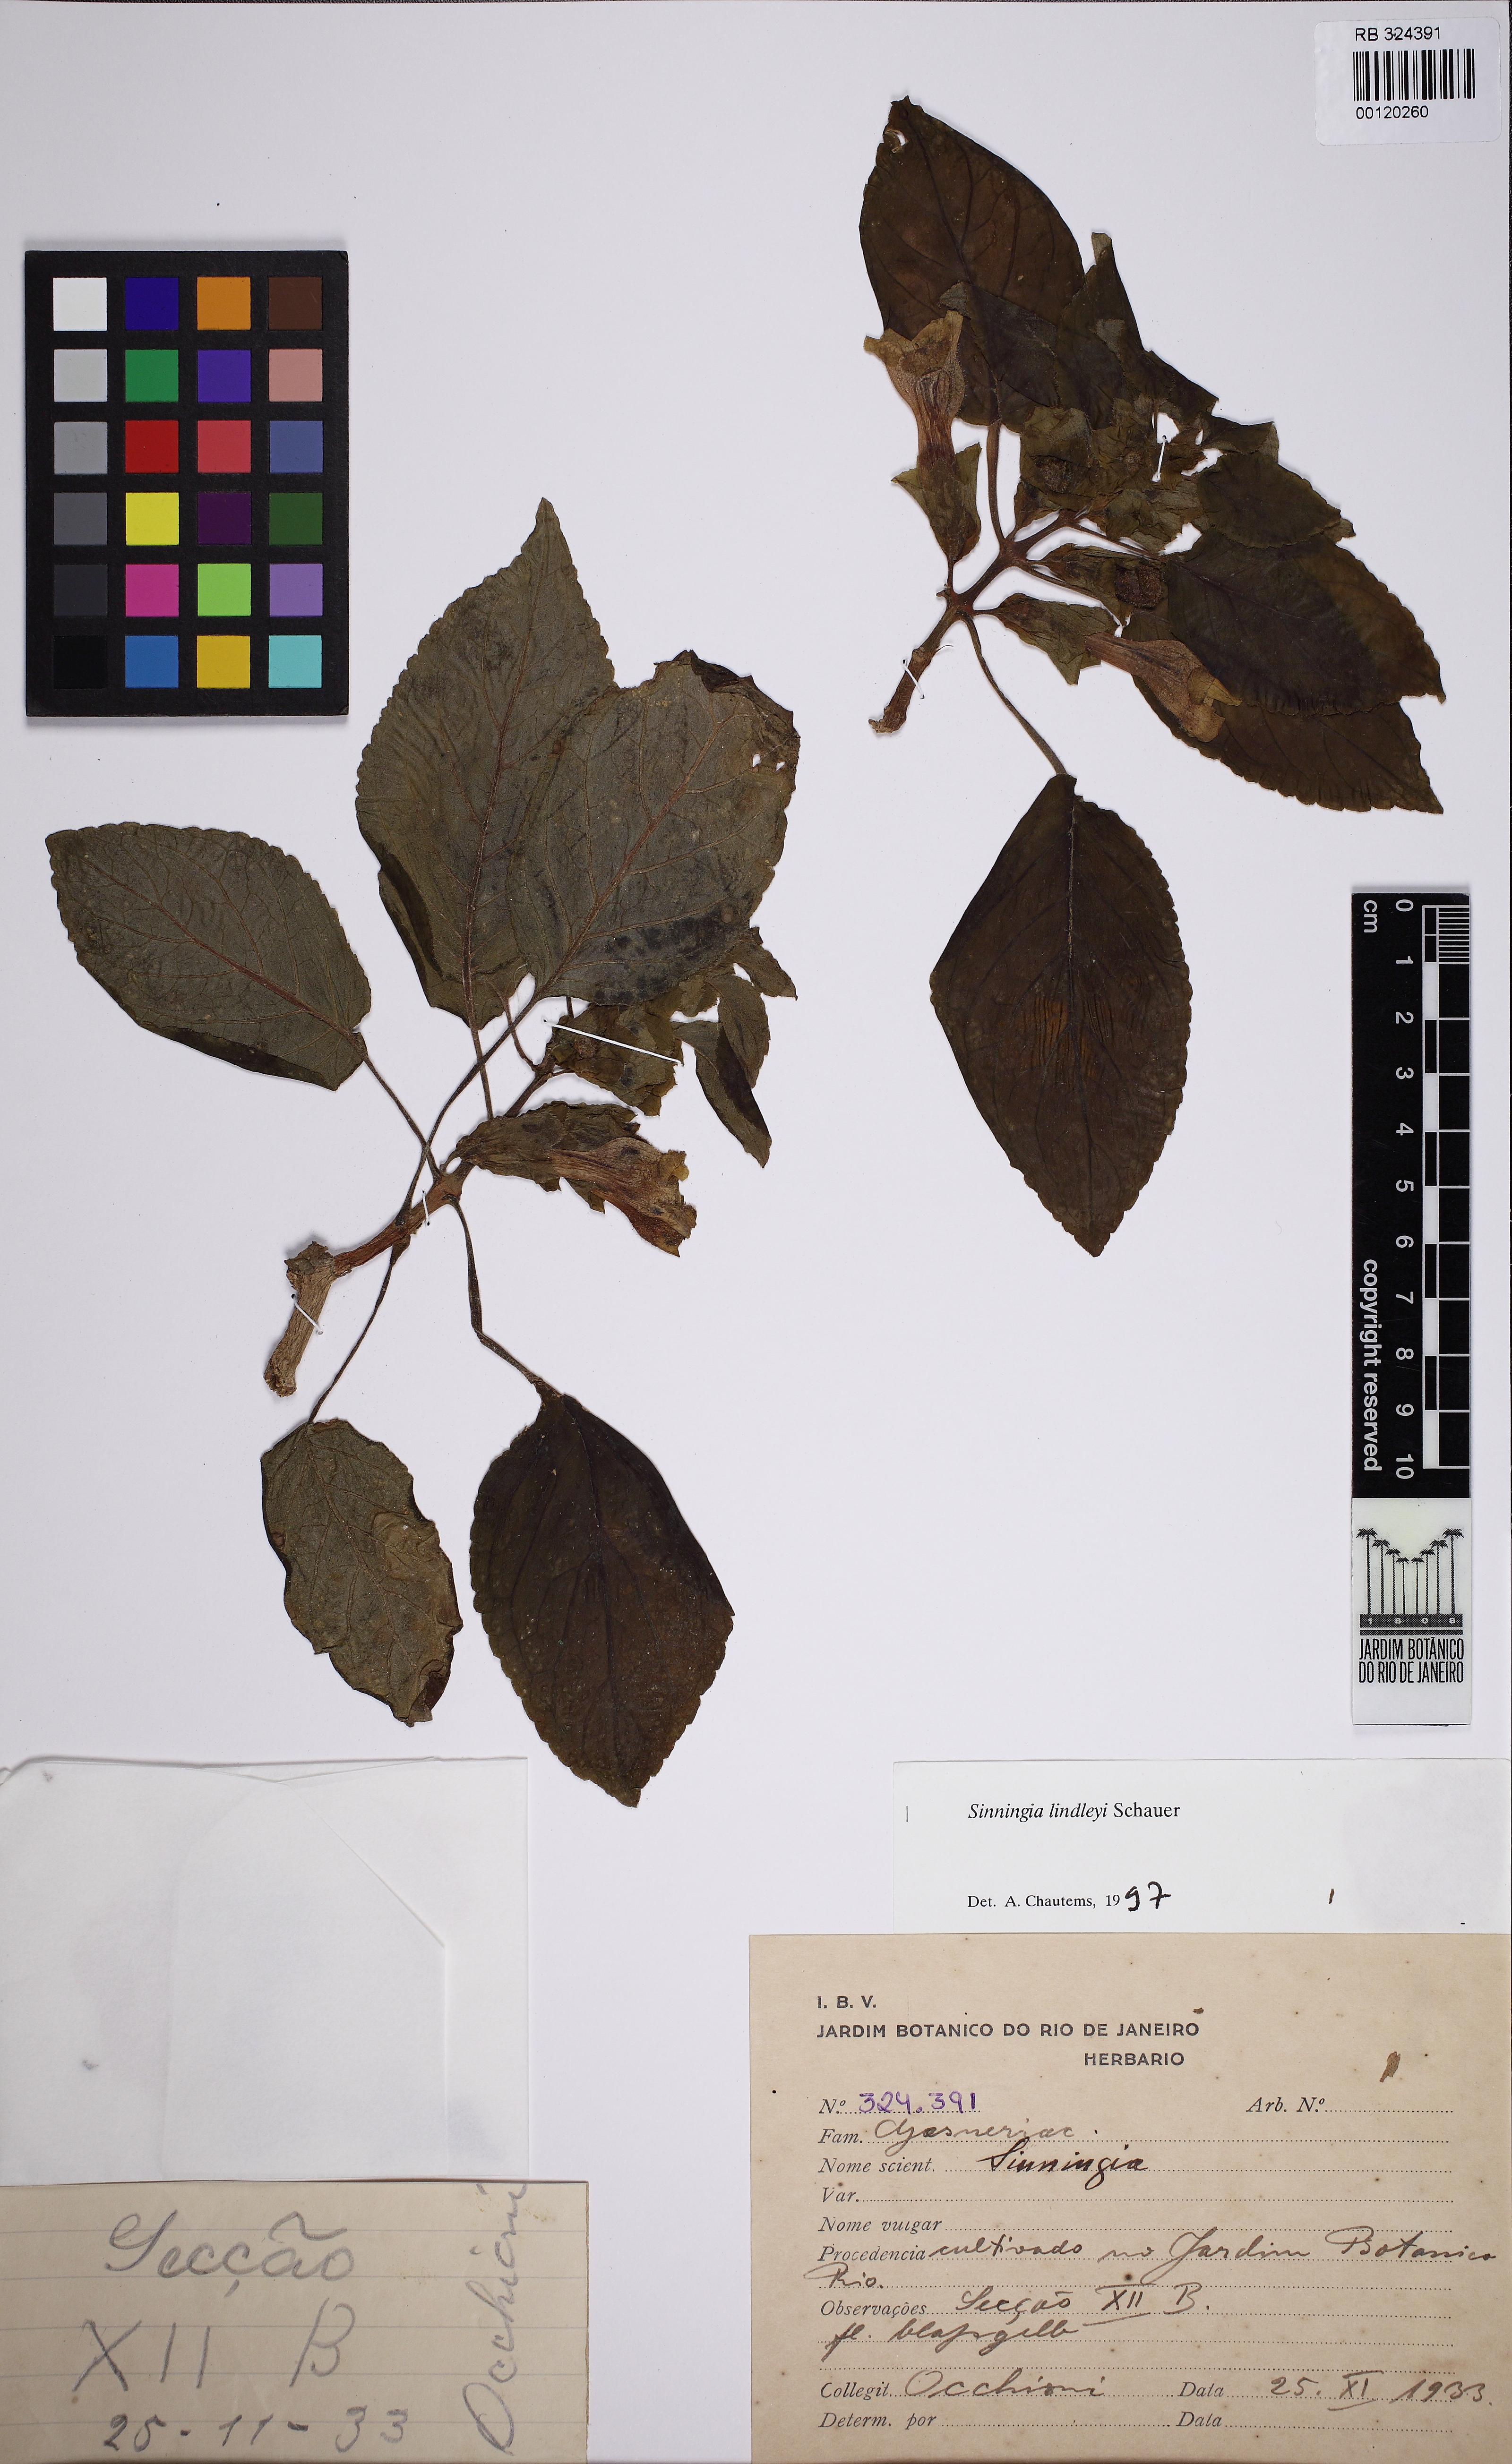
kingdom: Plantae
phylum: Tracheophyta
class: Magnoliopsida
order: Lamiales
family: Gesneriaceae
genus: Sinningia
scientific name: Sinningia lindleyi
